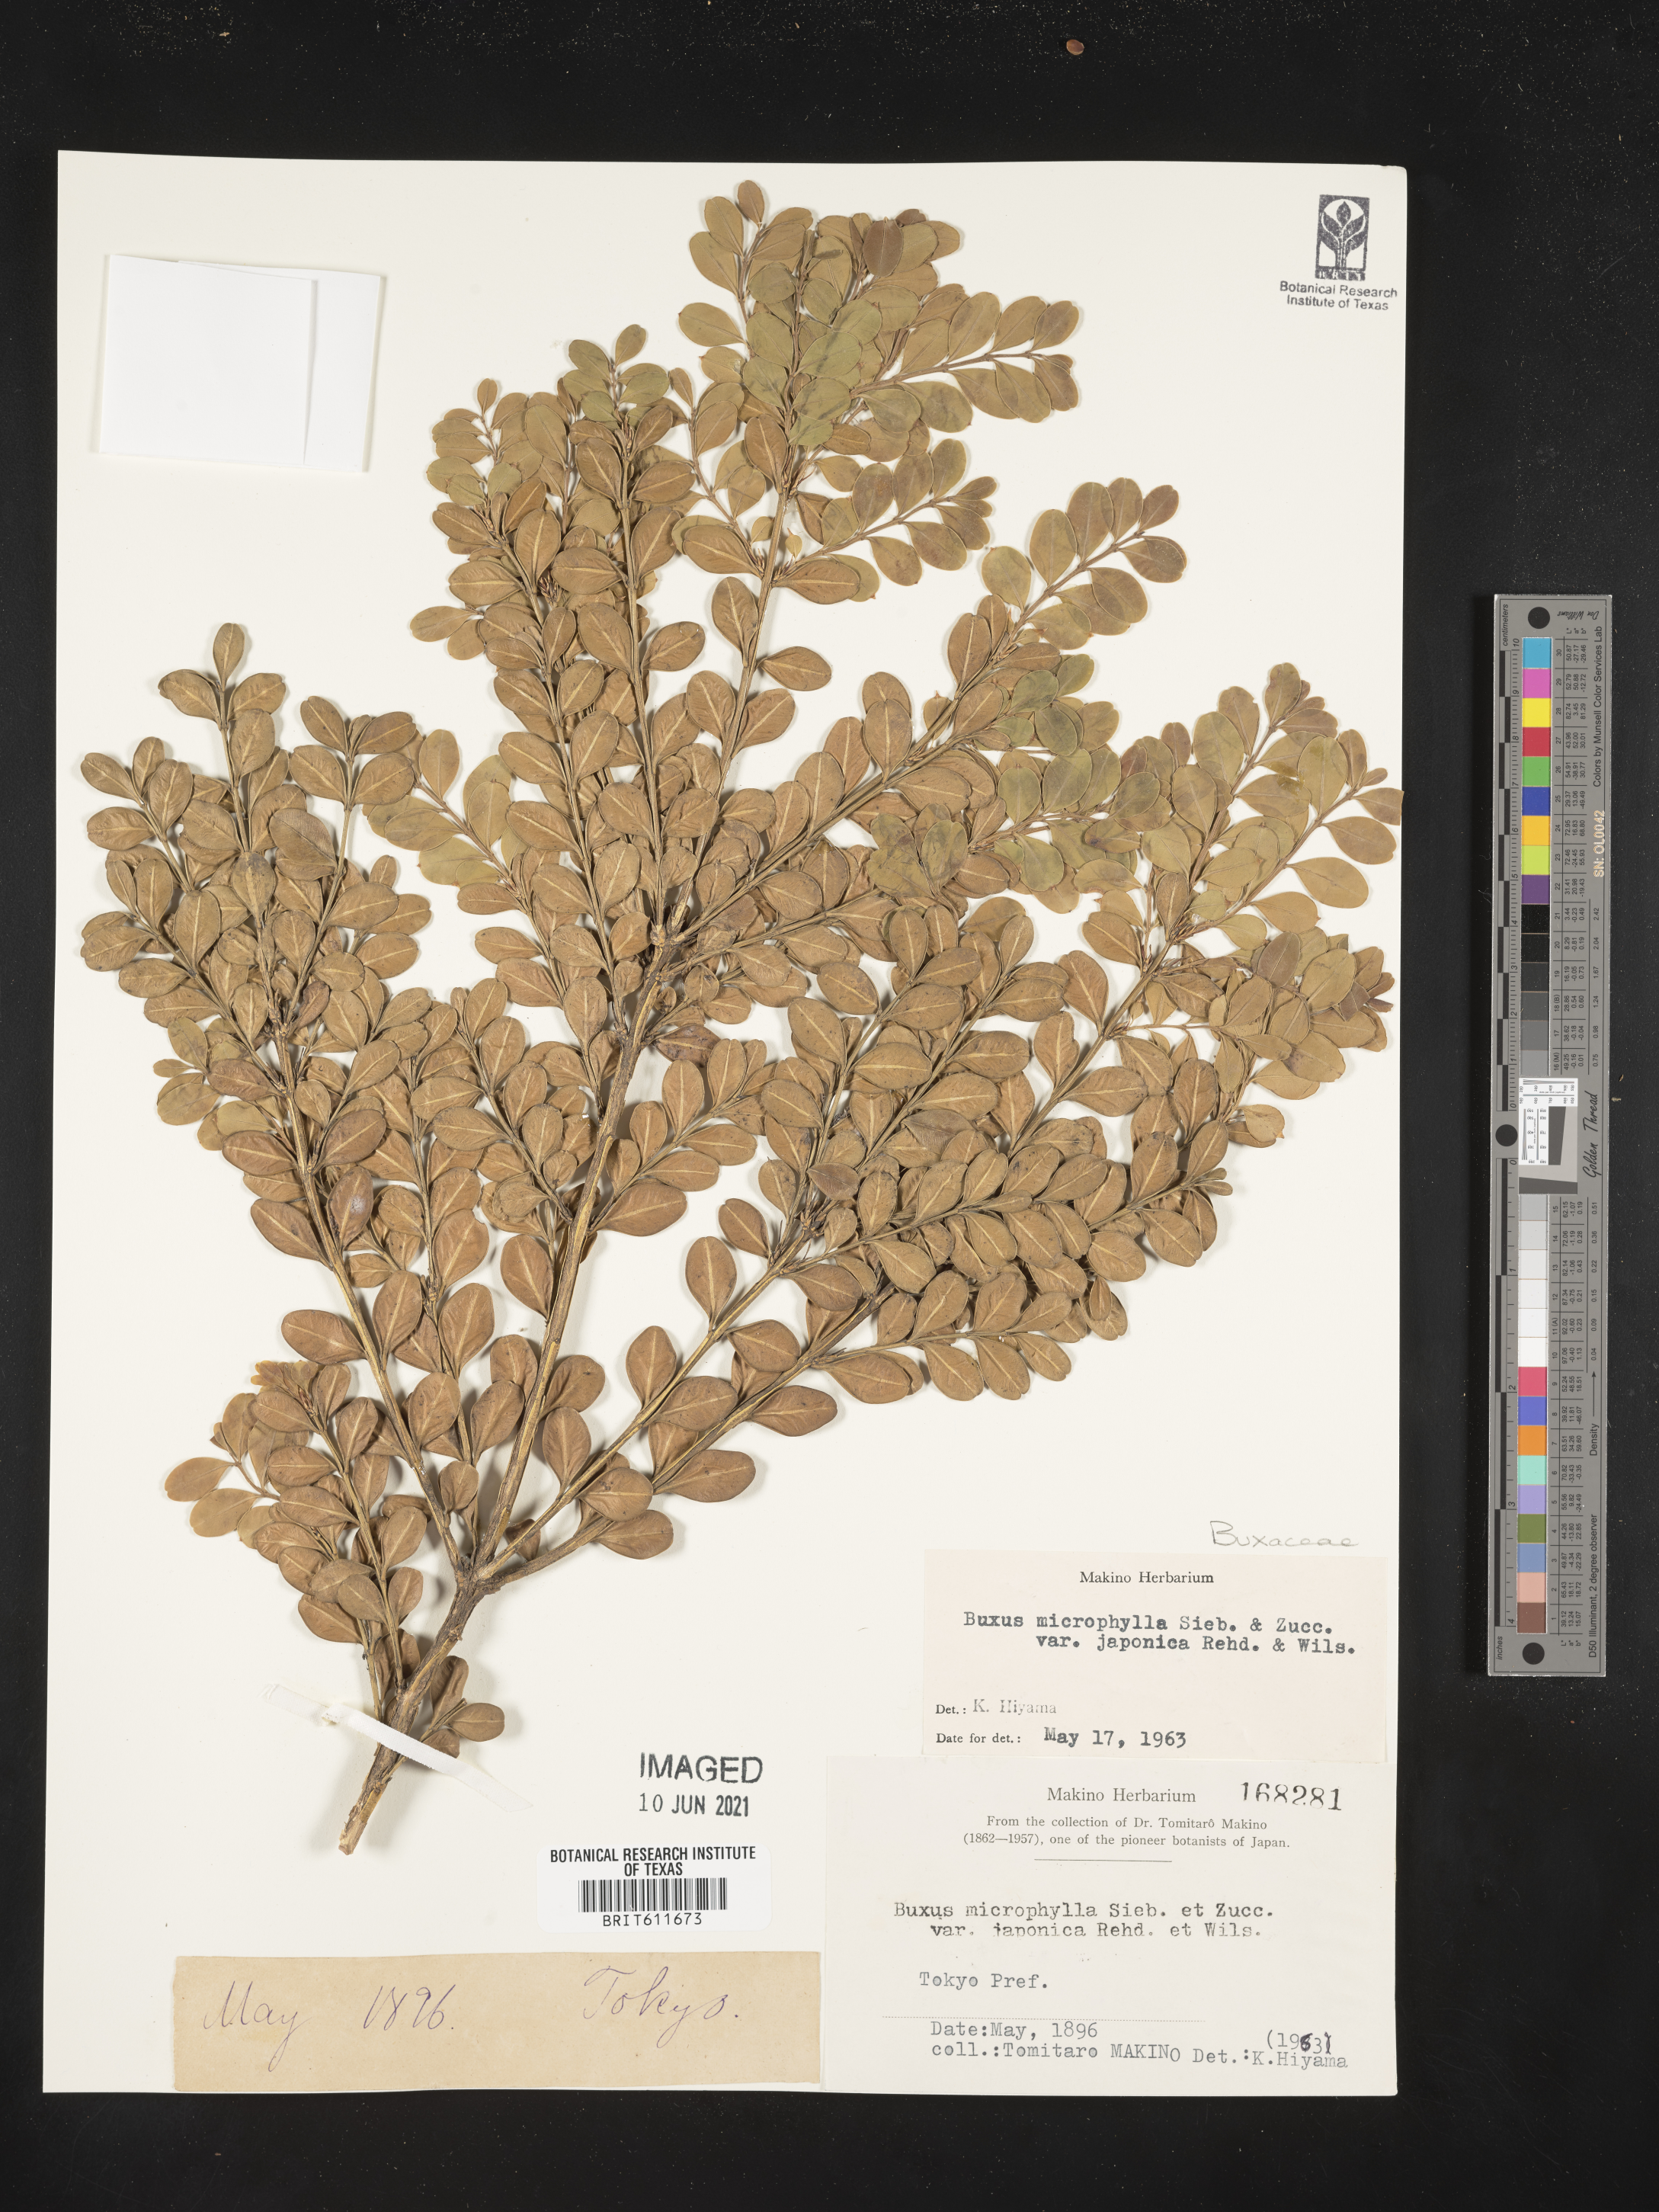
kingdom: Plantae
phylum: Tracheophyta
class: Magnoliopsida
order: Buxales
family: Buxaceae
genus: Buxus
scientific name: Buxus microphylla
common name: Littleleaf boxwood
